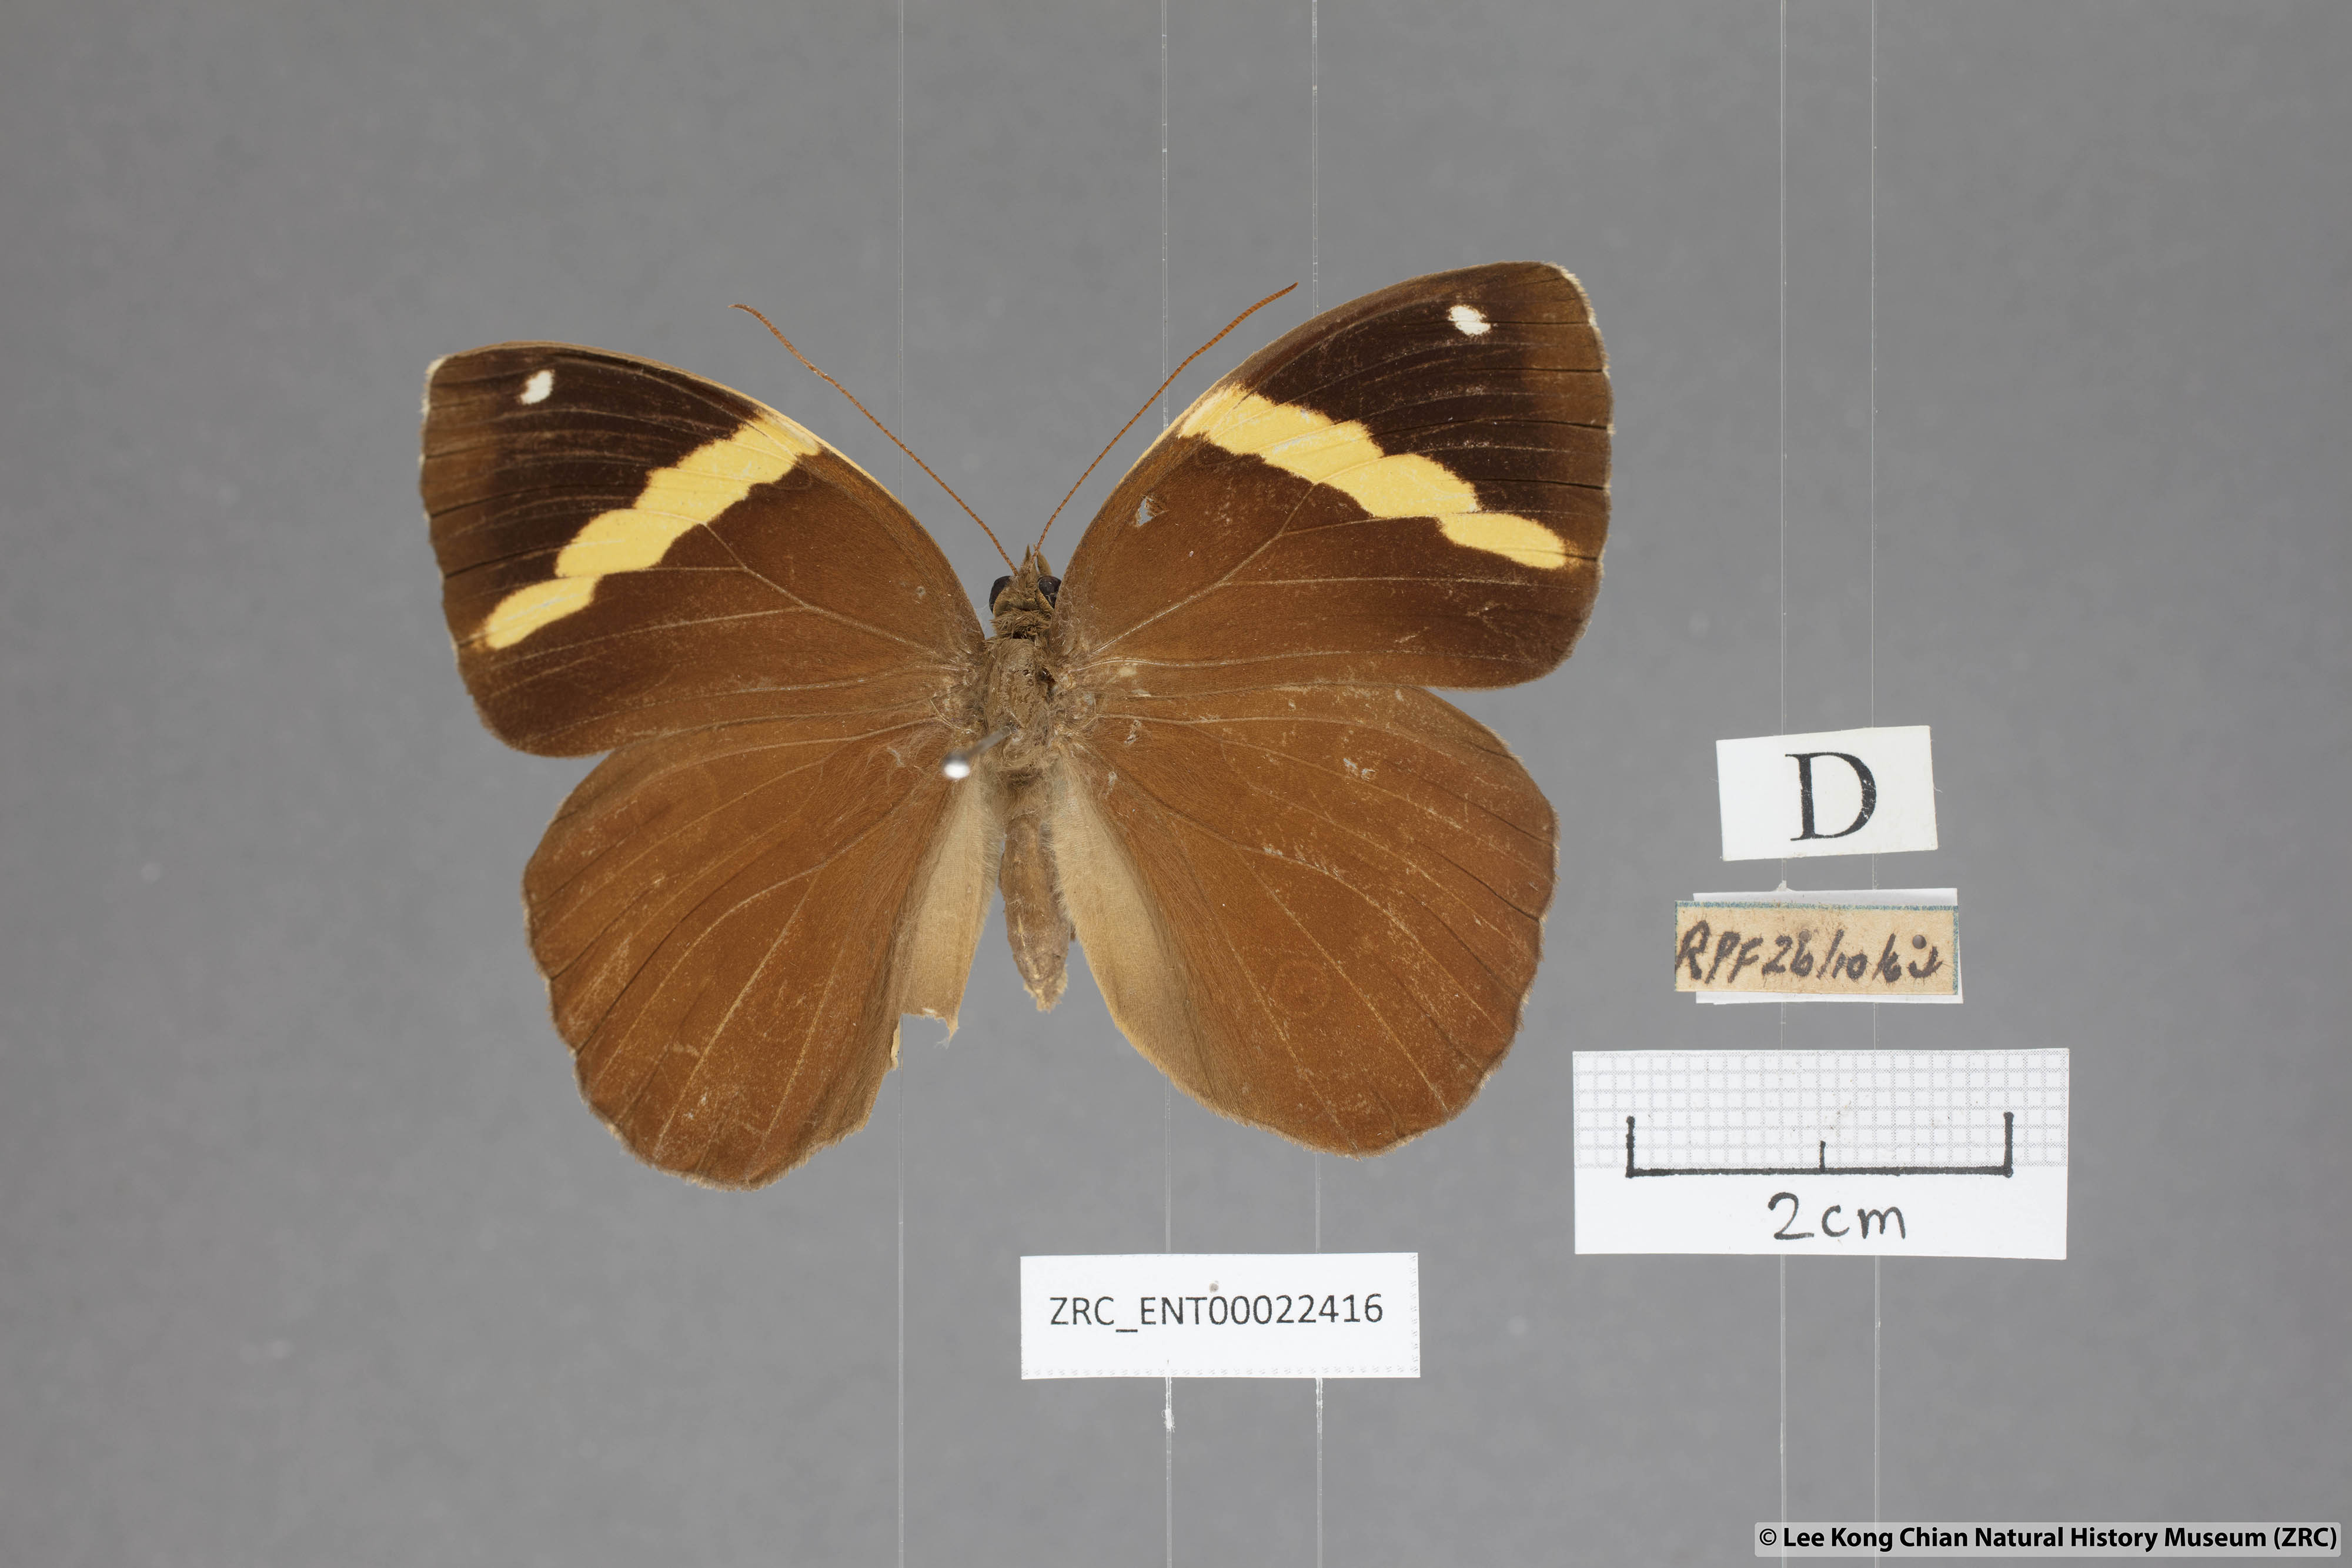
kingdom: Animalia
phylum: Arthropoda
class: Insecta
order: Lepidoptera
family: Nymphalidae
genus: Xanthotaenia
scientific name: Xanthotaenia busiris
